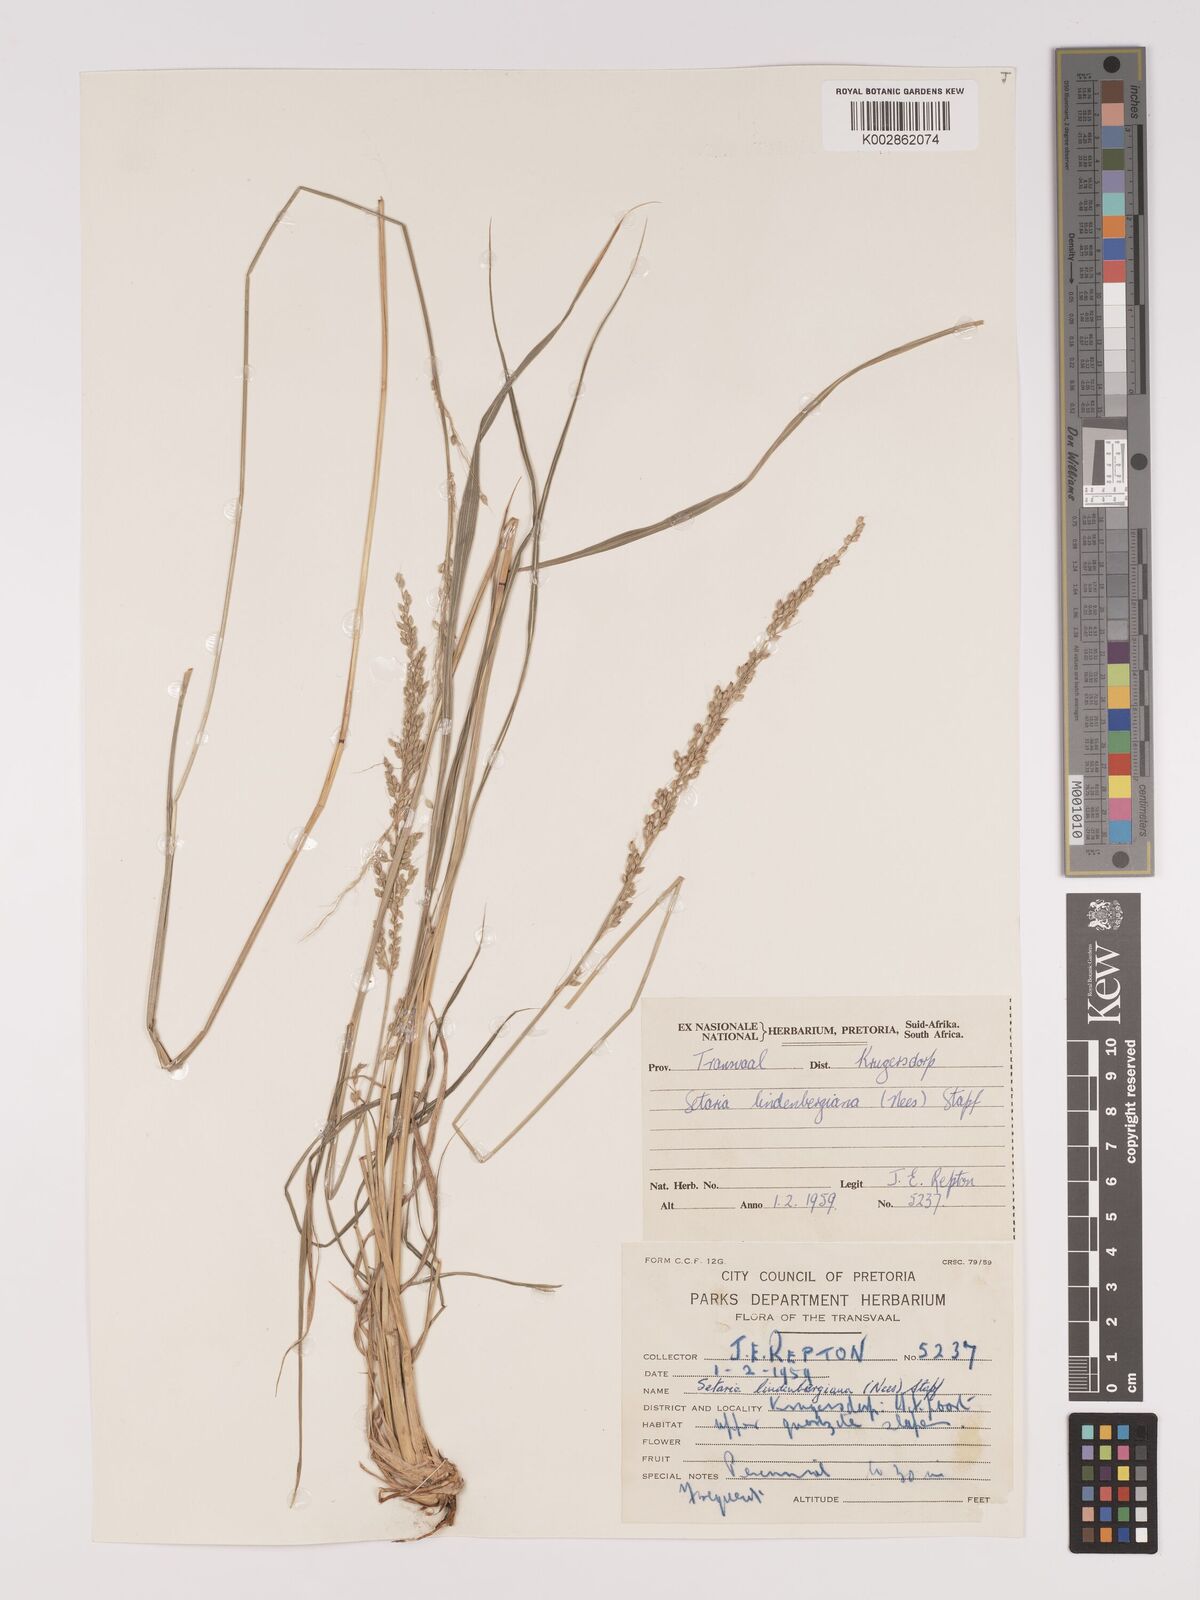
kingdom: Plantae
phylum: Tracheophyta
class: Liliopsida
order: Poales
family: Poaceae
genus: Setaria
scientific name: Setaria lindenbergiana
